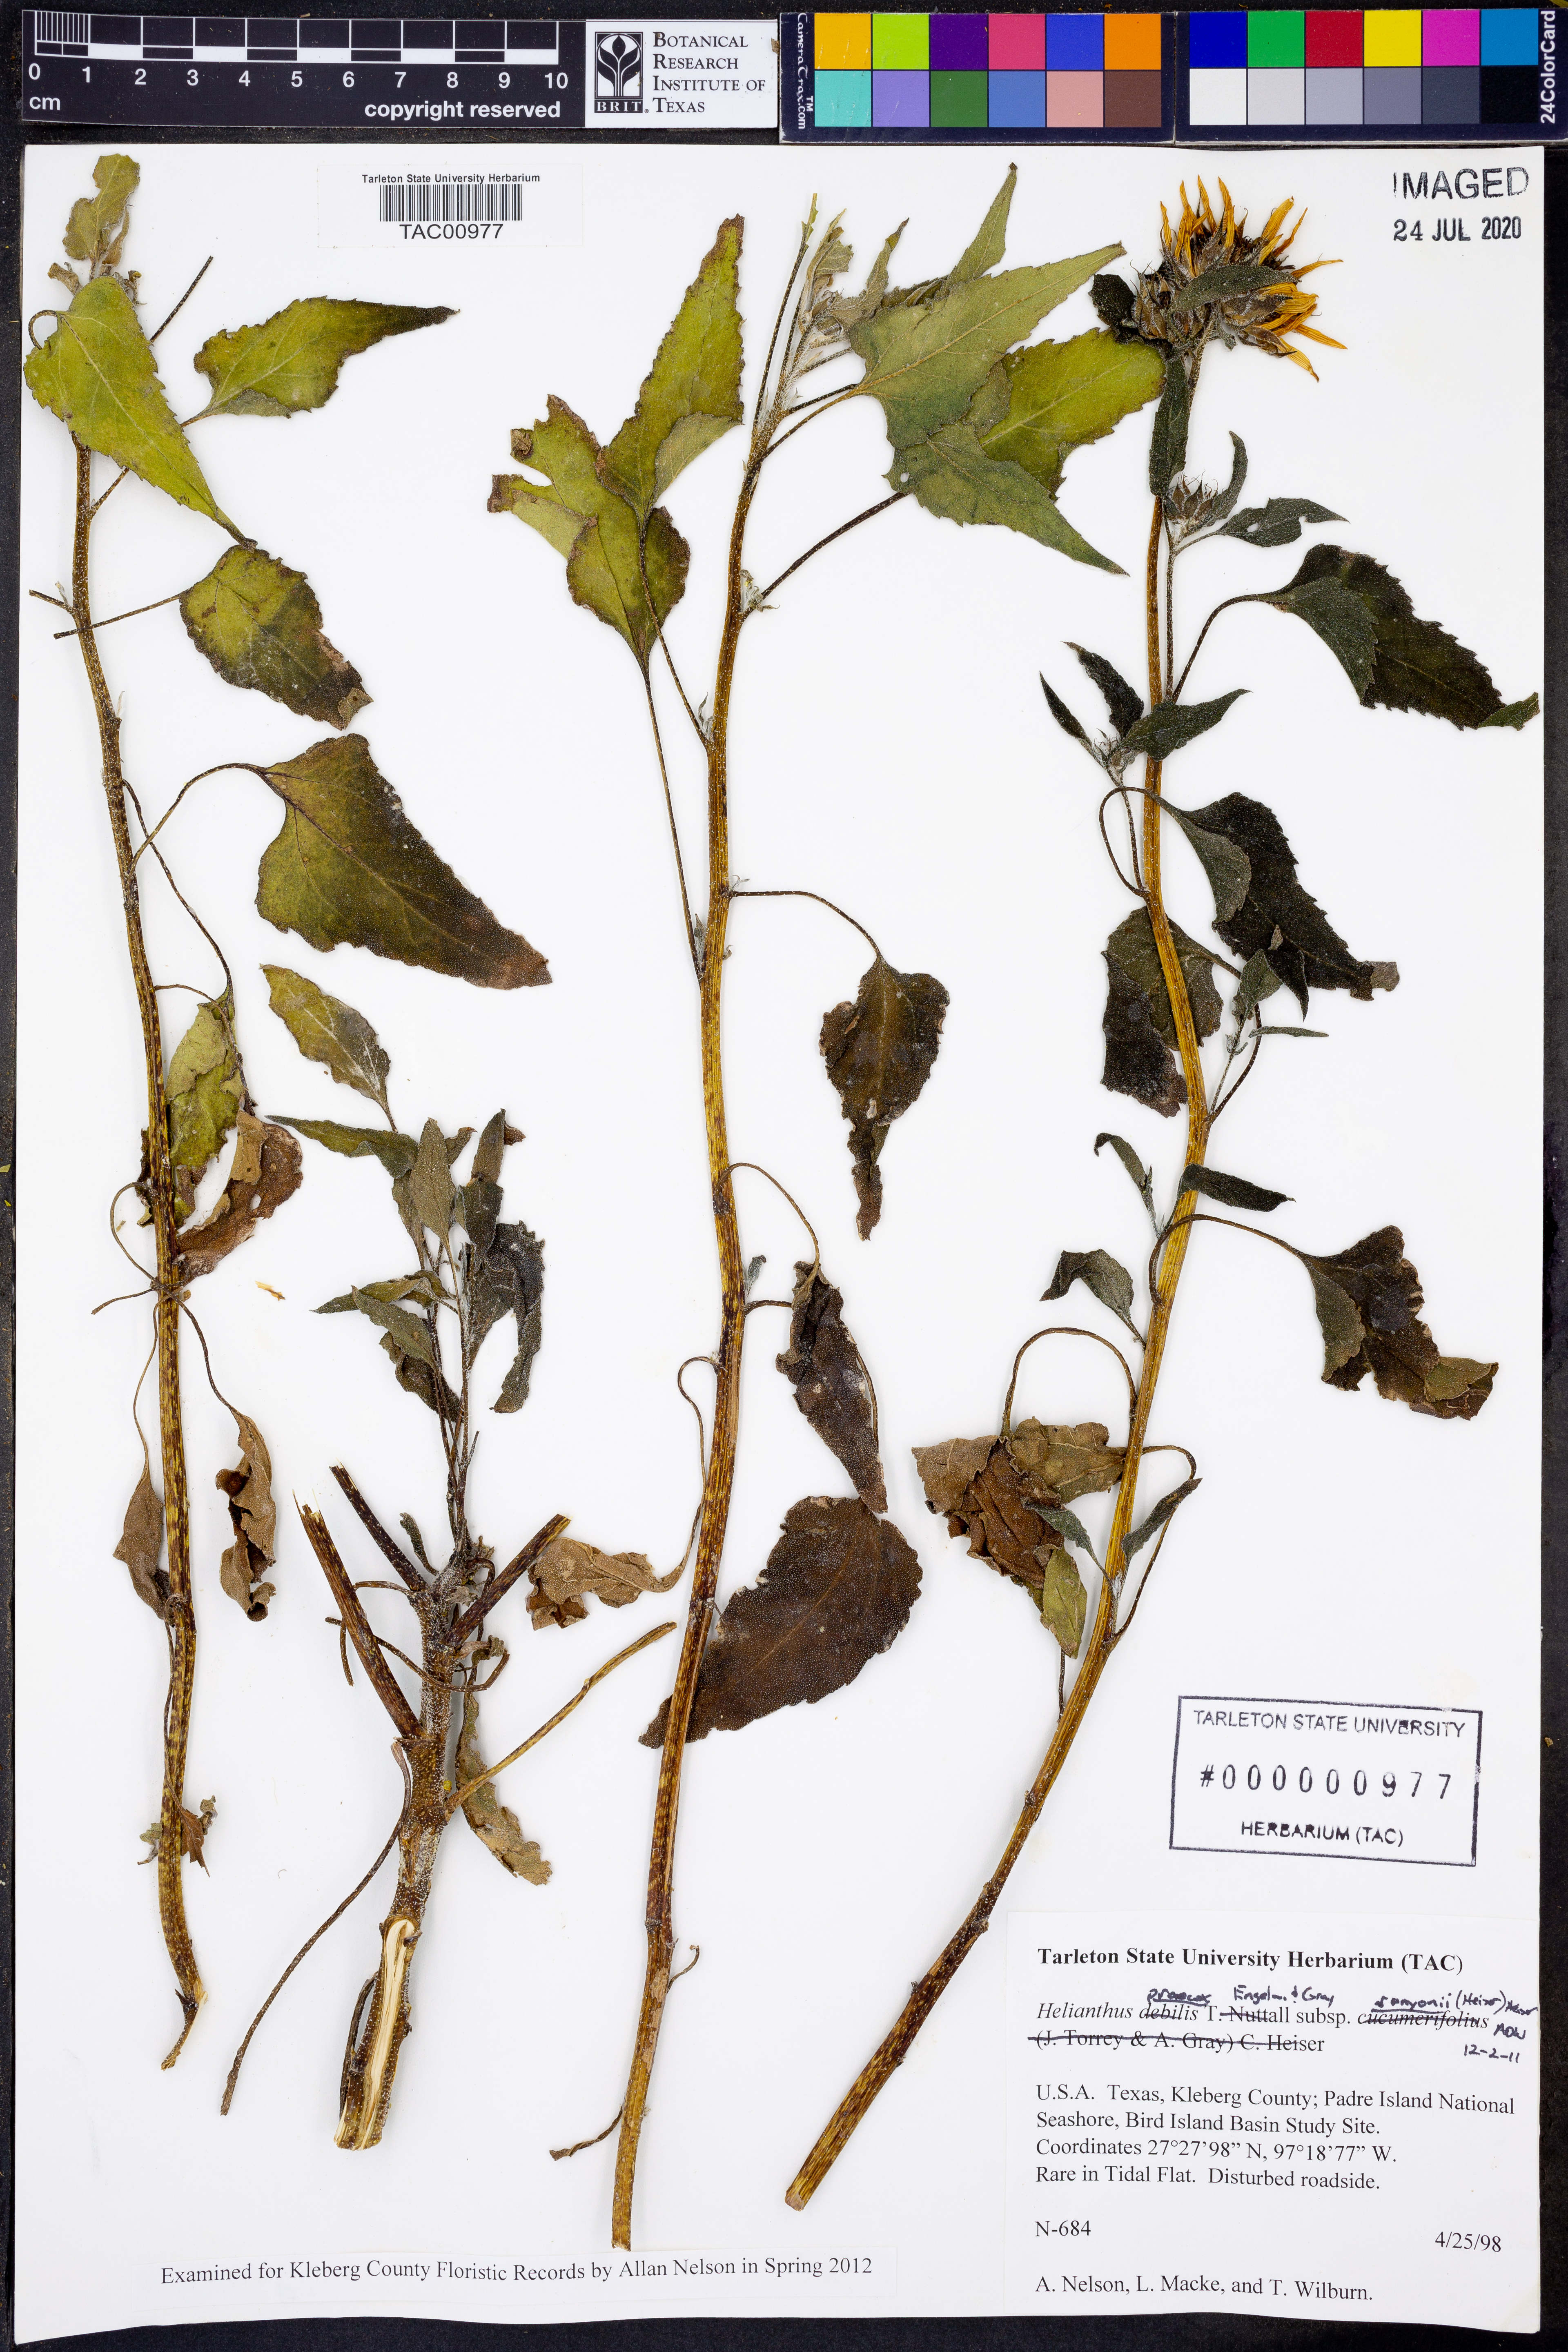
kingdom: Plantae
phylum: Tracheophyta
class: Magnoliopsida
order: Asterales
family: Asteraceae
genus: Helianthus
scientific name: Helianthus praecox
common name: Texas sunflower
